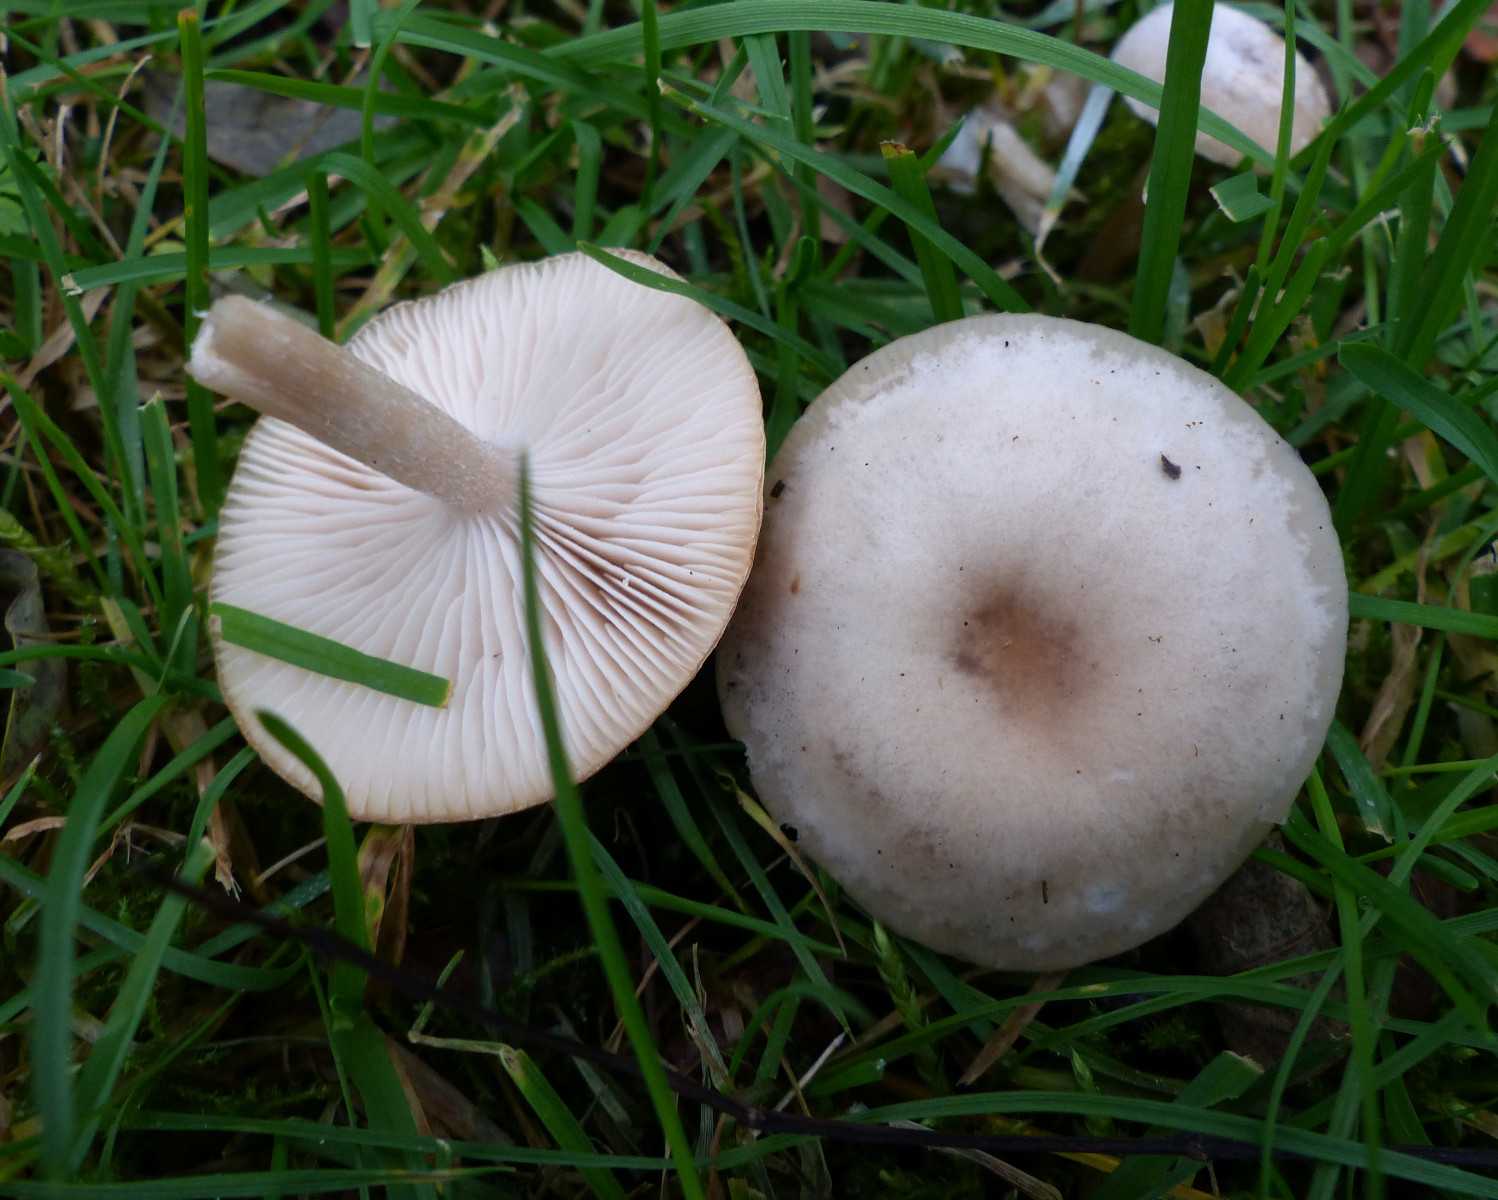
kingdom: Fungi
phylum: Basidiomycota
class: Agaricomycetes
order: Agaricales
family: Tricholomataceae
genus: Clitocybe
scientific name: Clitocybe fragrans
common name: vellugtende tragthat
